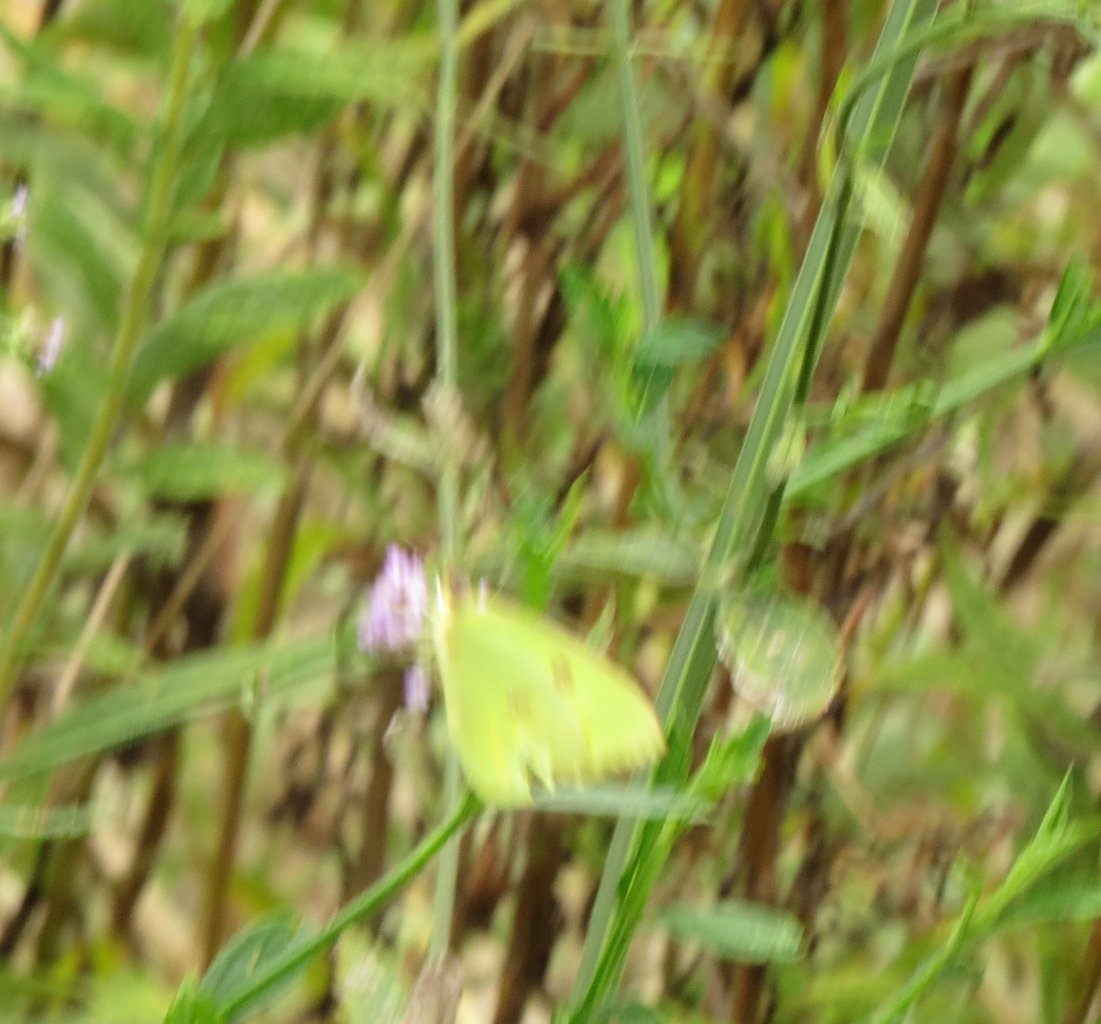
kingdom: Animalia
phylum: Arthropoda
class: Insecta
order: Lepidoptera
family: Pieridae
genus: Phoebis
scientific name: Phoebis sennae
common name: Cloudless Sulphur
